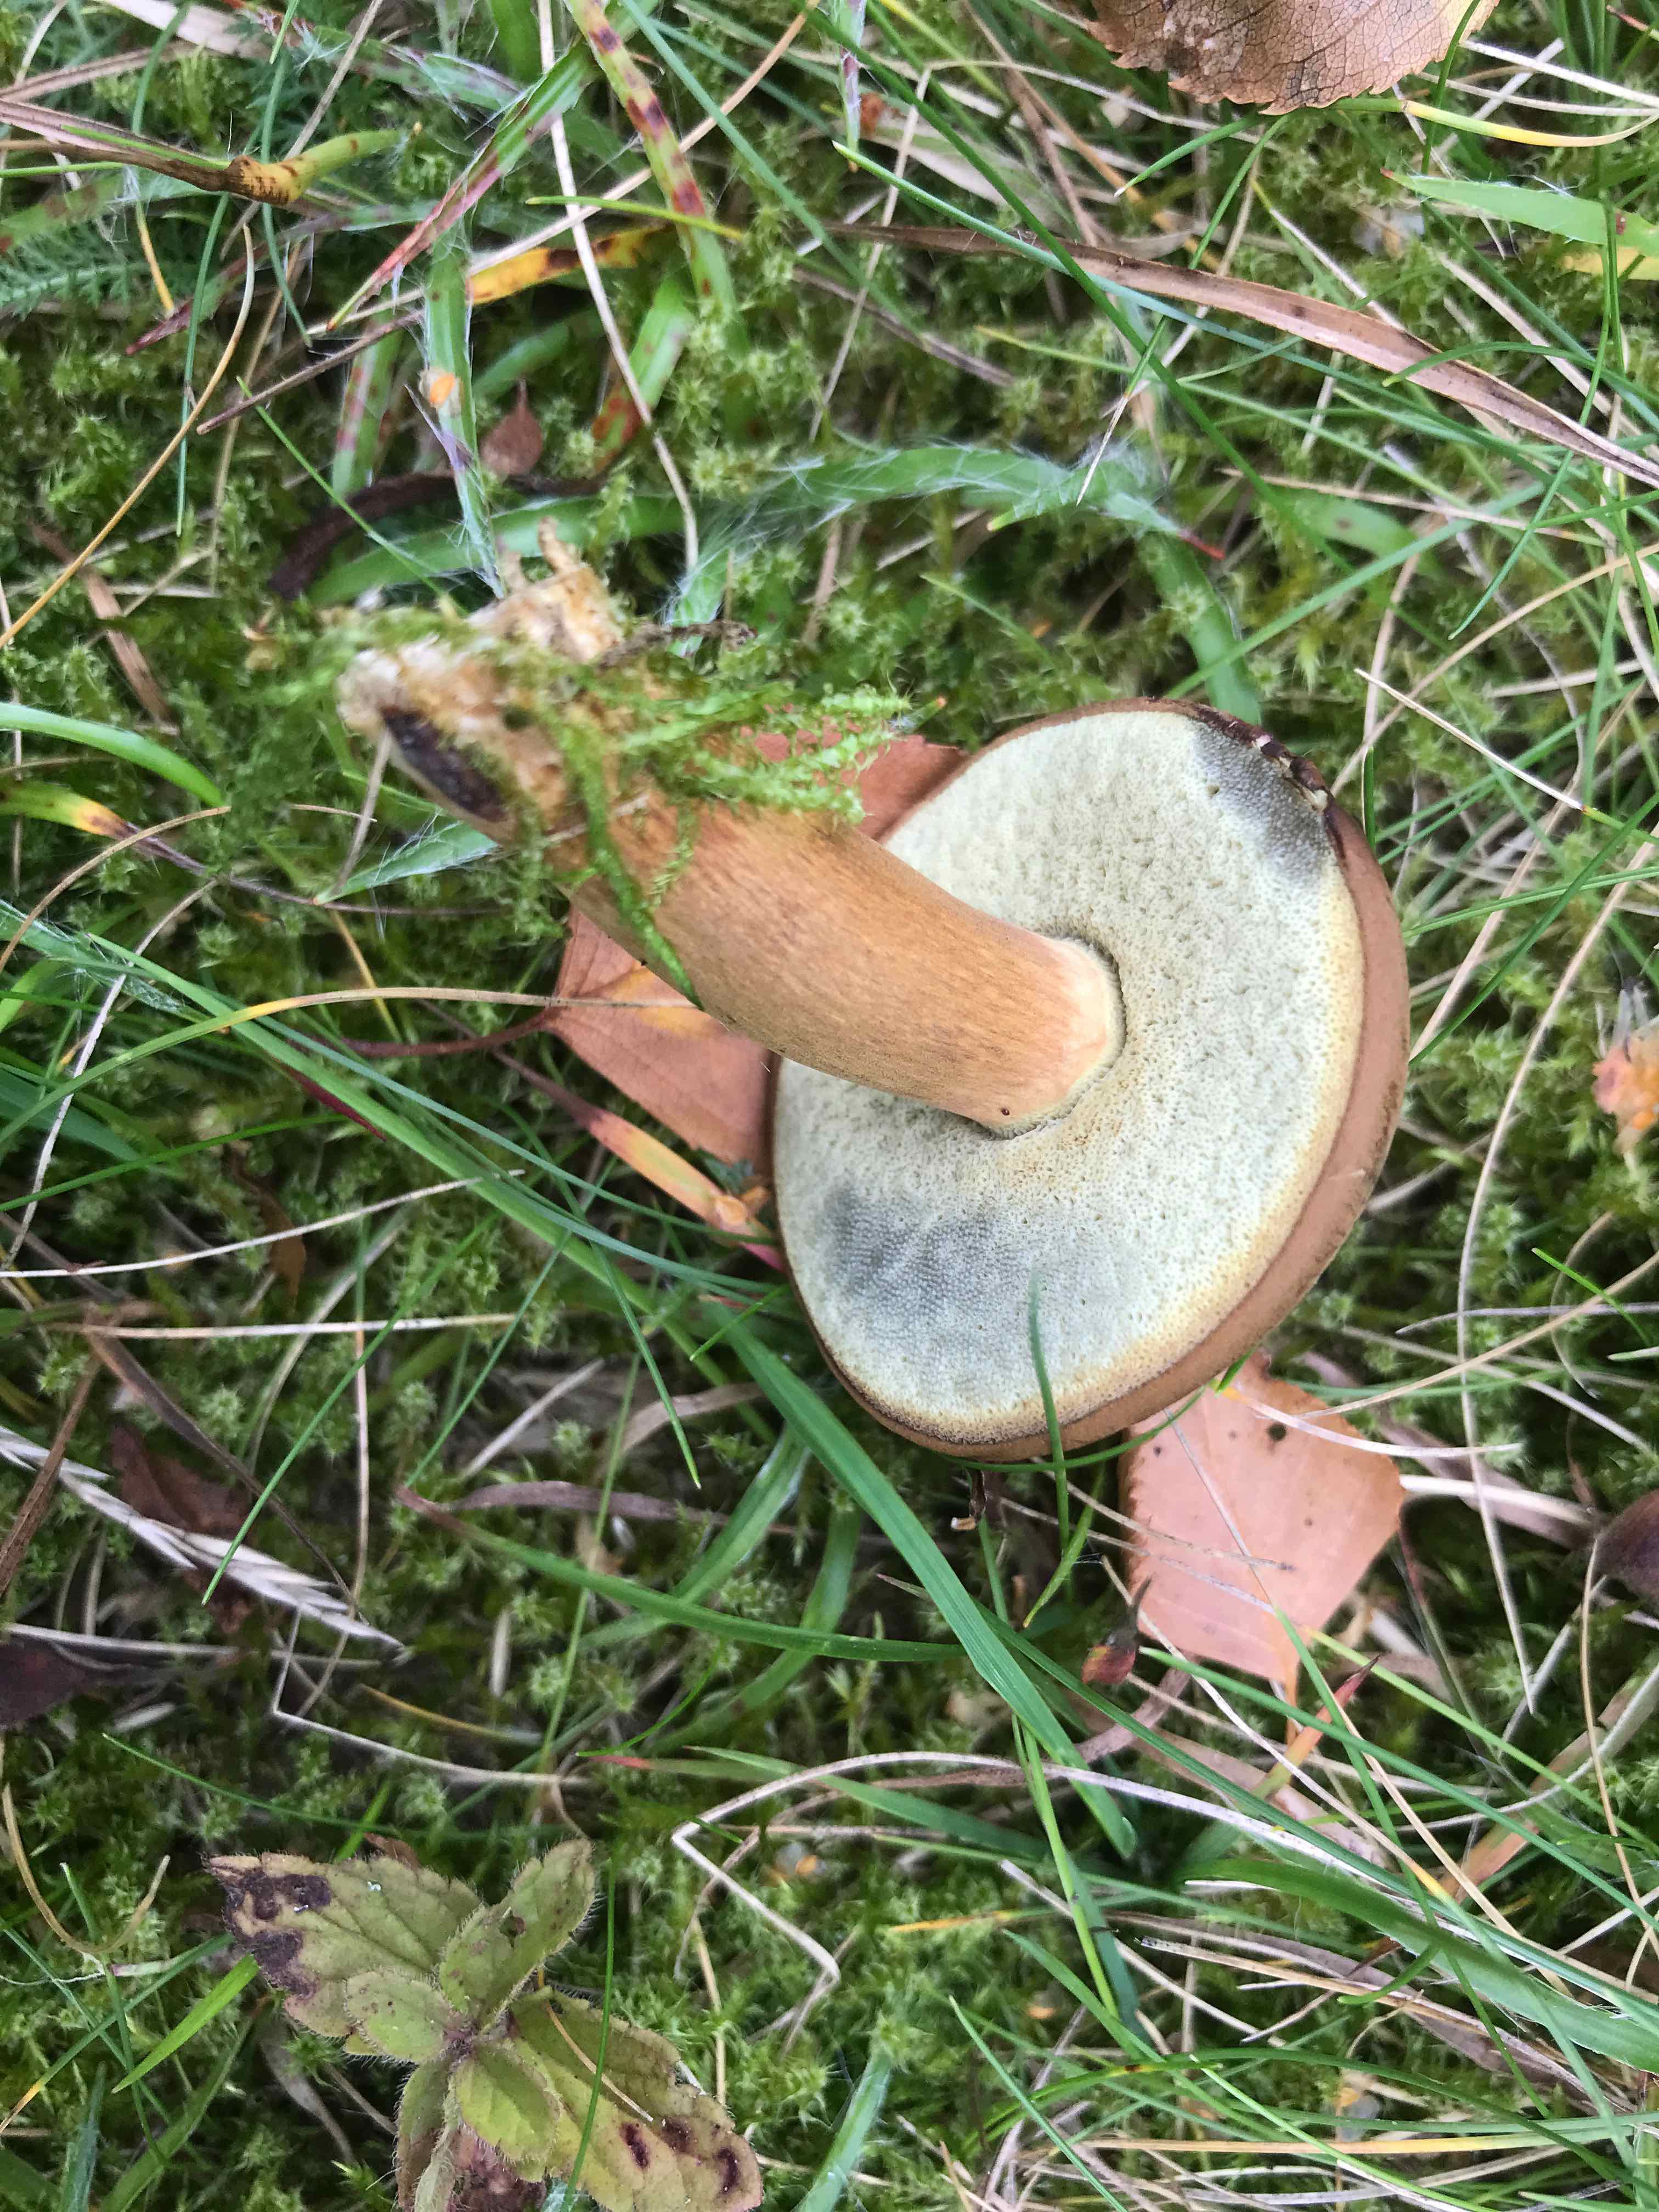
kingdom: Fungi
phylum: Basidiomycota
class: Agaricomycetes
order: Boletales
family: Boletaceae
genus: Imleria
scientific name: Imleria badia
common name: brunstokket rørhat
